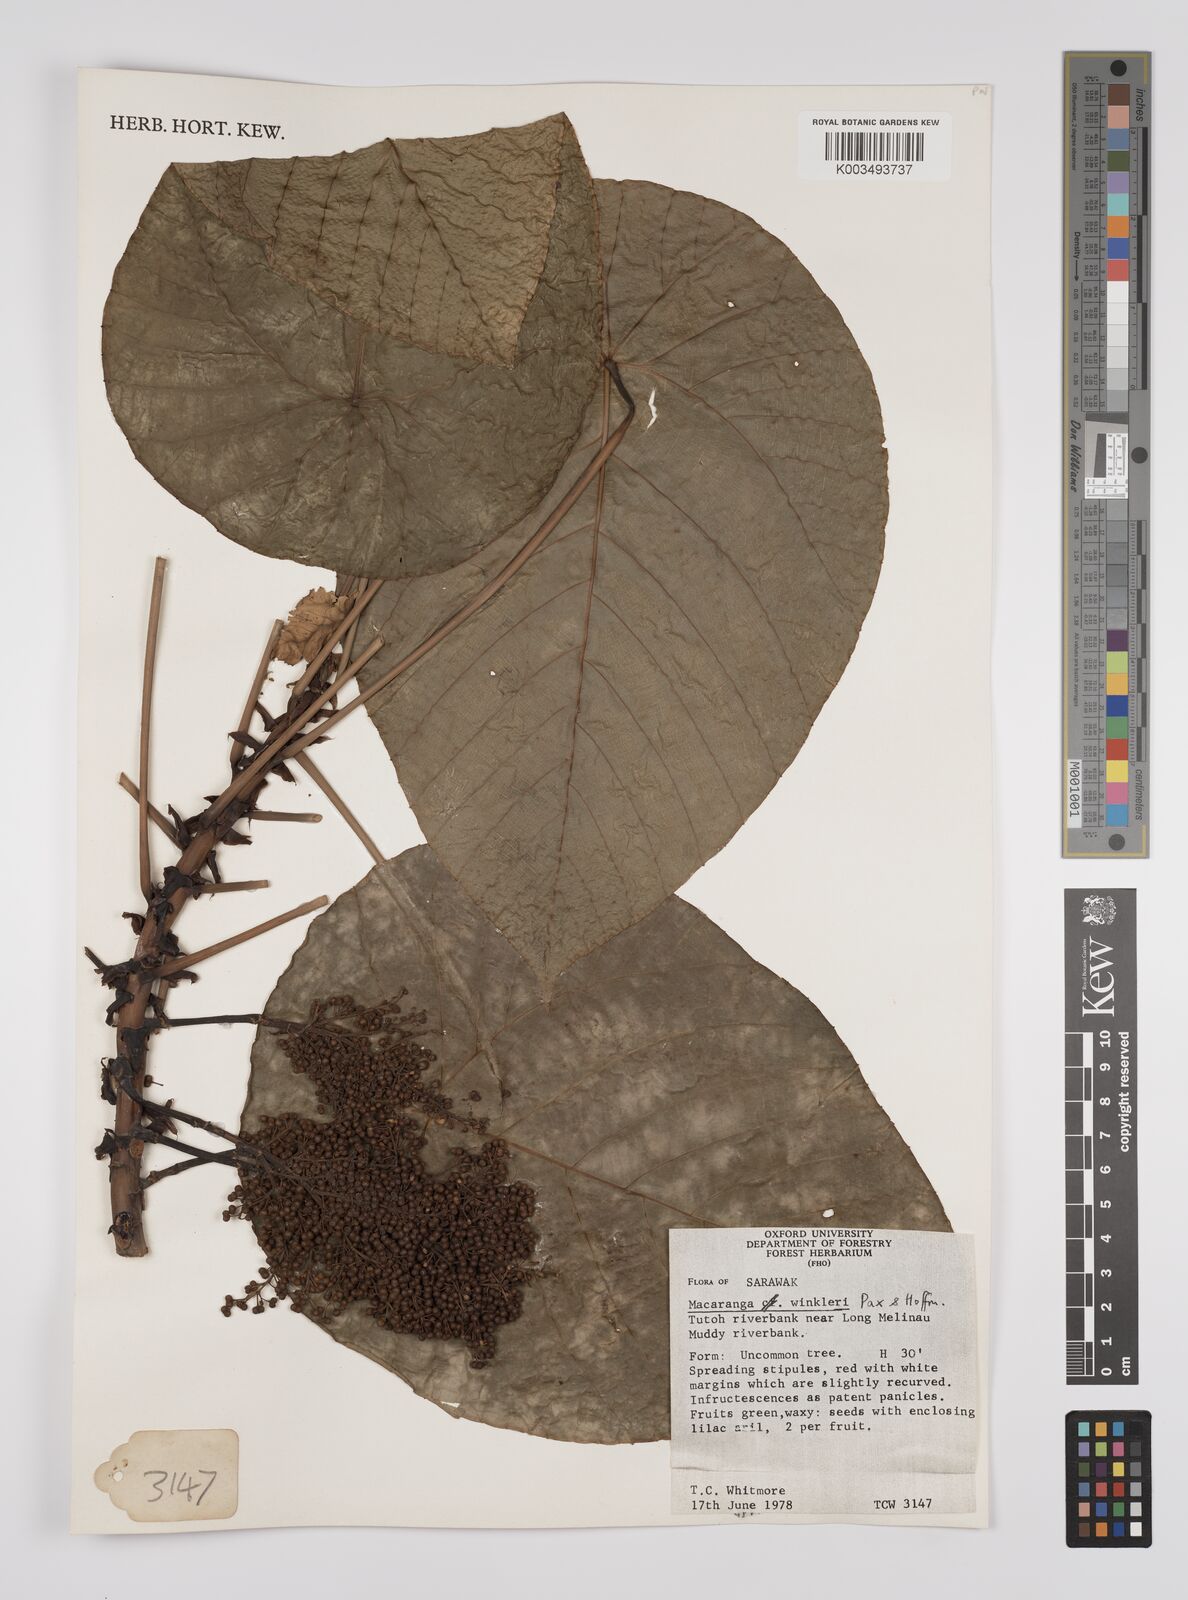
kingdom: Plantae
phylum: Tracheophyta
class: Magnoliopsida
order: Malpighiales
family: Euphorbiaceae
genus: Macaranga
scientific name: Macaranga winkleri
